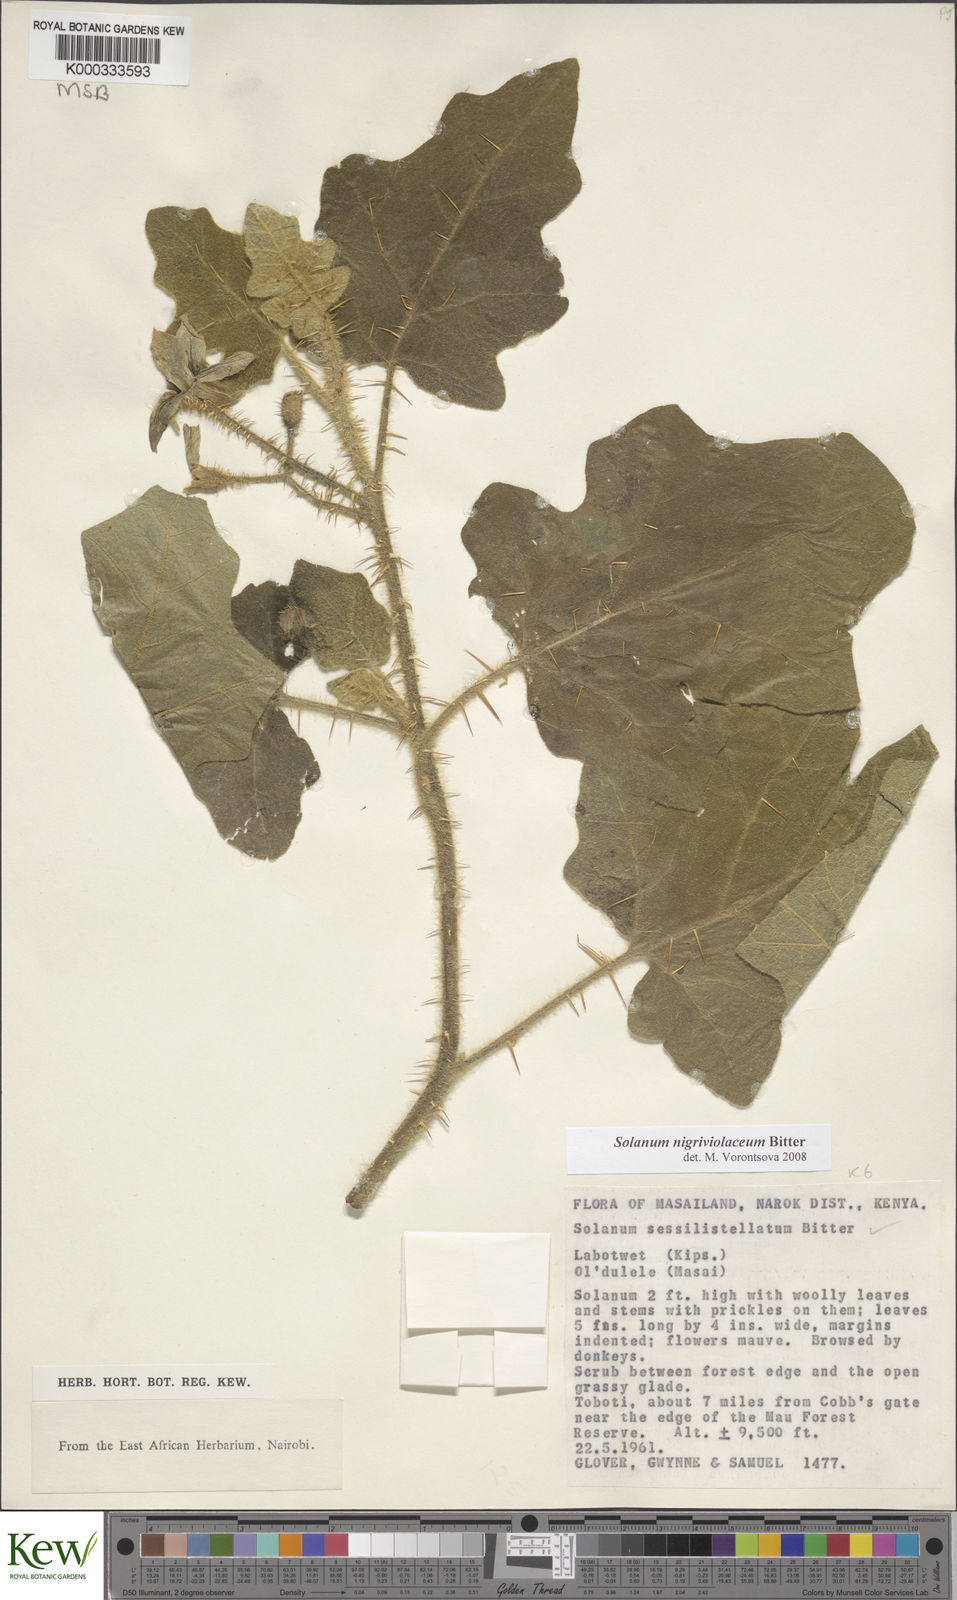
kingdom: Plantae
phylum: Tracheophyta
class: Magnoliopsida
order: Solanales
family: Solanaceae
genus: Solanum
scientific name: Solanum nigriviolaceum
